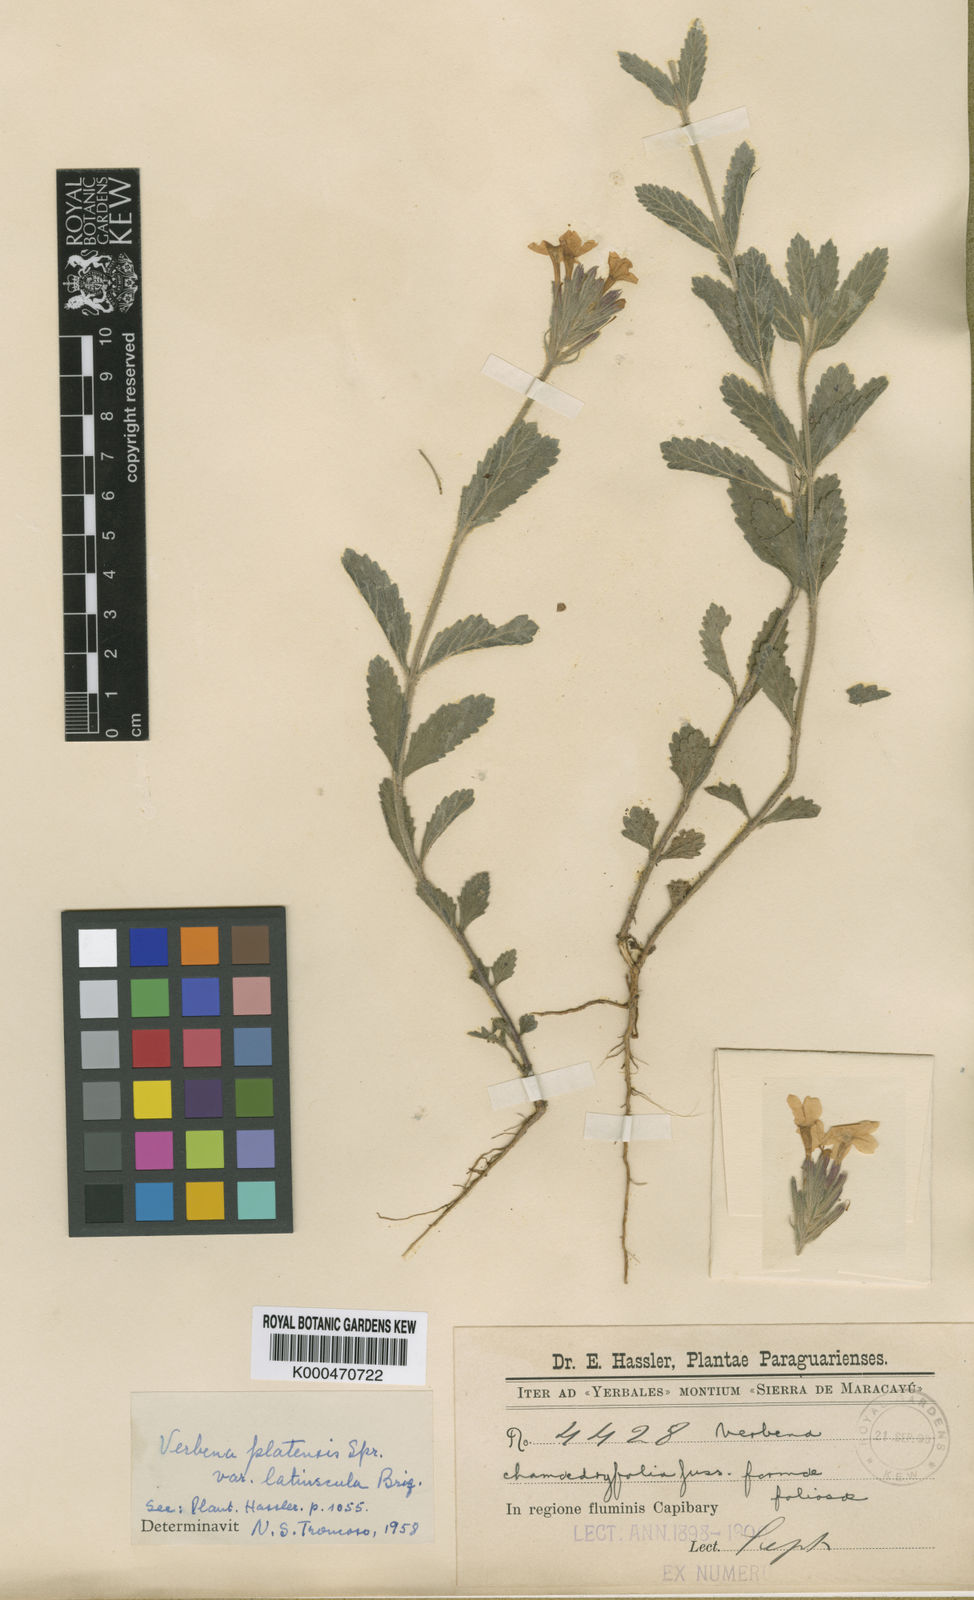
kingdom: Plantae
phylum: Tracheophyta
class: Magnoliopsida
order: Lamiales
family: Verbenaceae
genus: Verbena
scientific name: Verbena platensis
